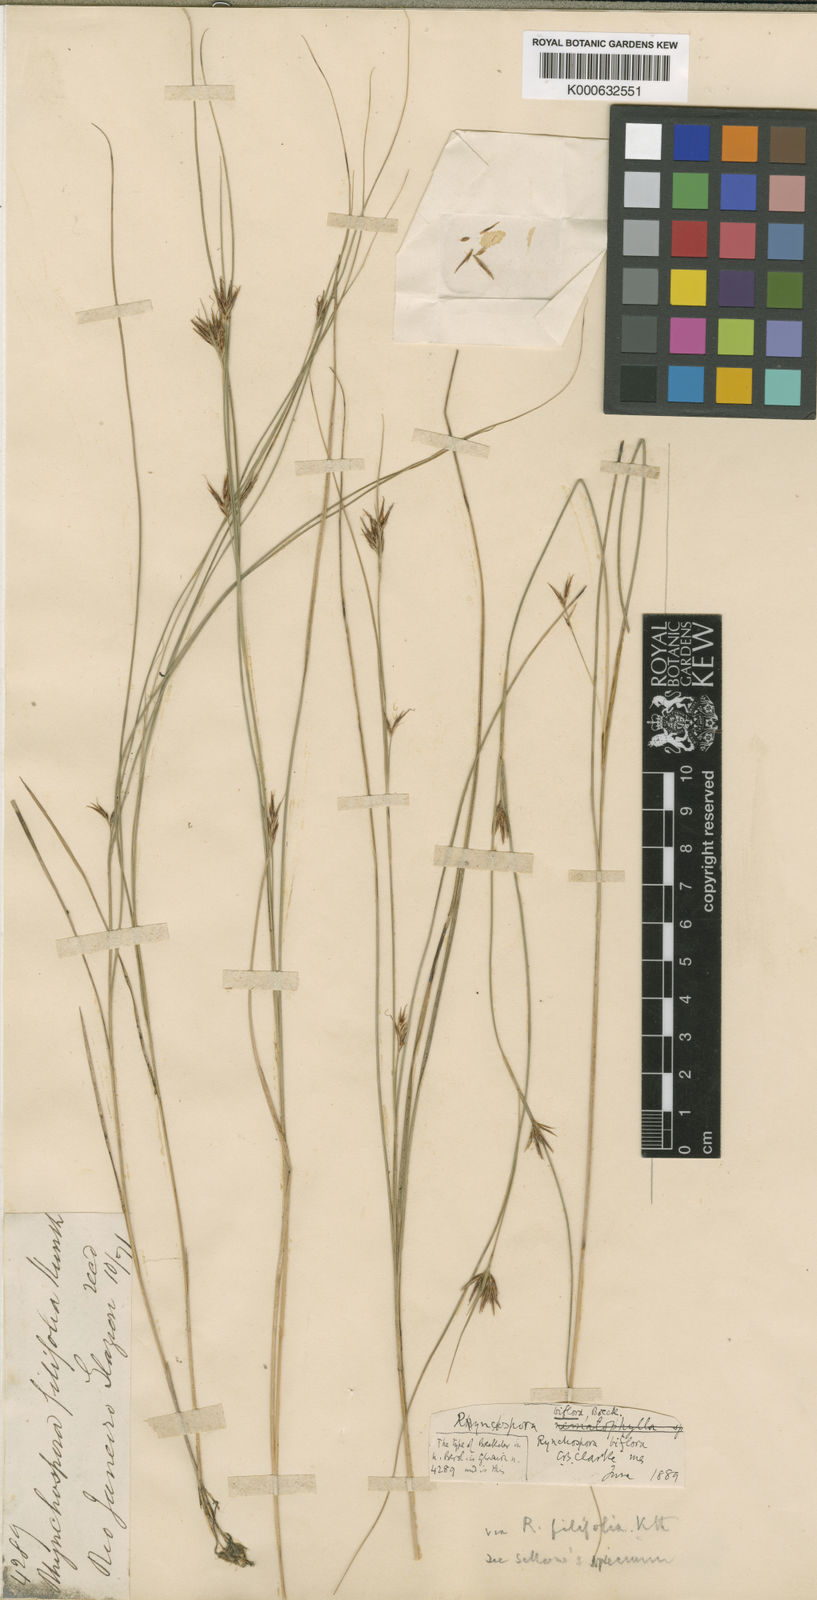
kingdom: Plantae
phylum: Tracheophyta
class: Liliopsida
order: Poales
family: Cyperaceae
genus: Rhynchospora
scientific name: Rhynchospora biflora
